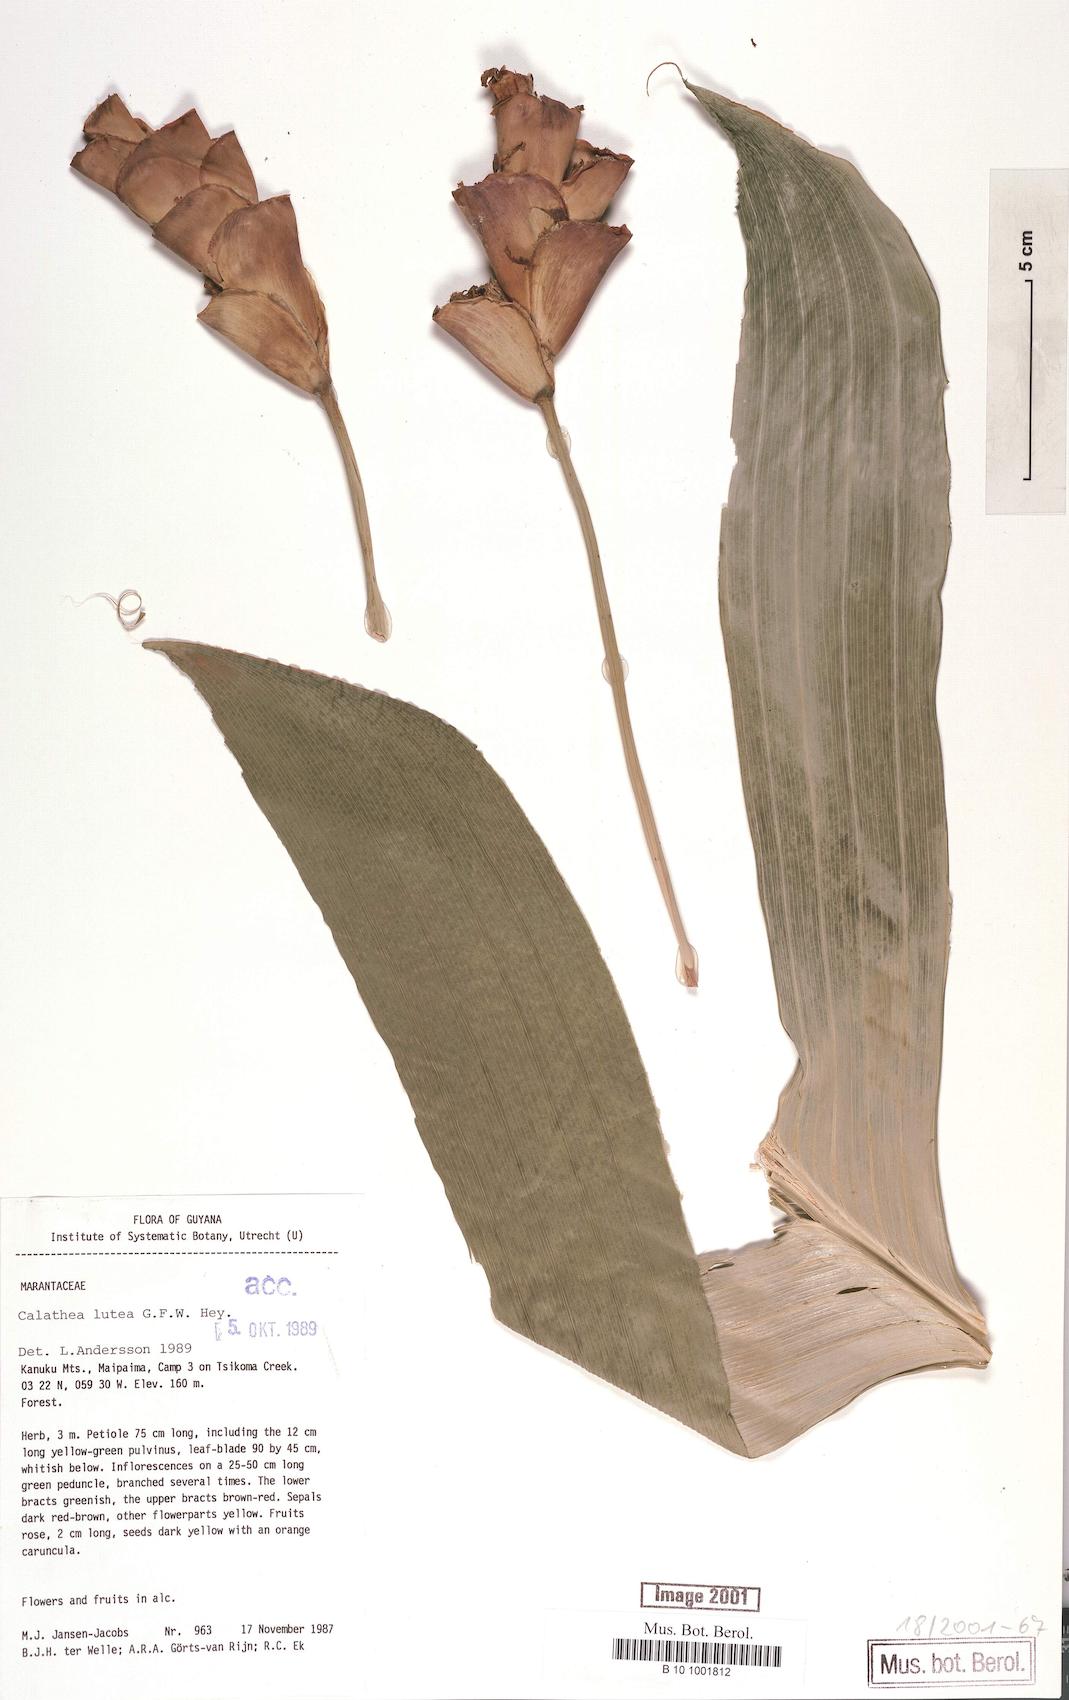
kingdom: Plantae
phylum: Tracheophyta
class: Liliopsida
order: Zingiberales
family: Marantaceae
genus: Calathea
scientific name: Calathea lutea
